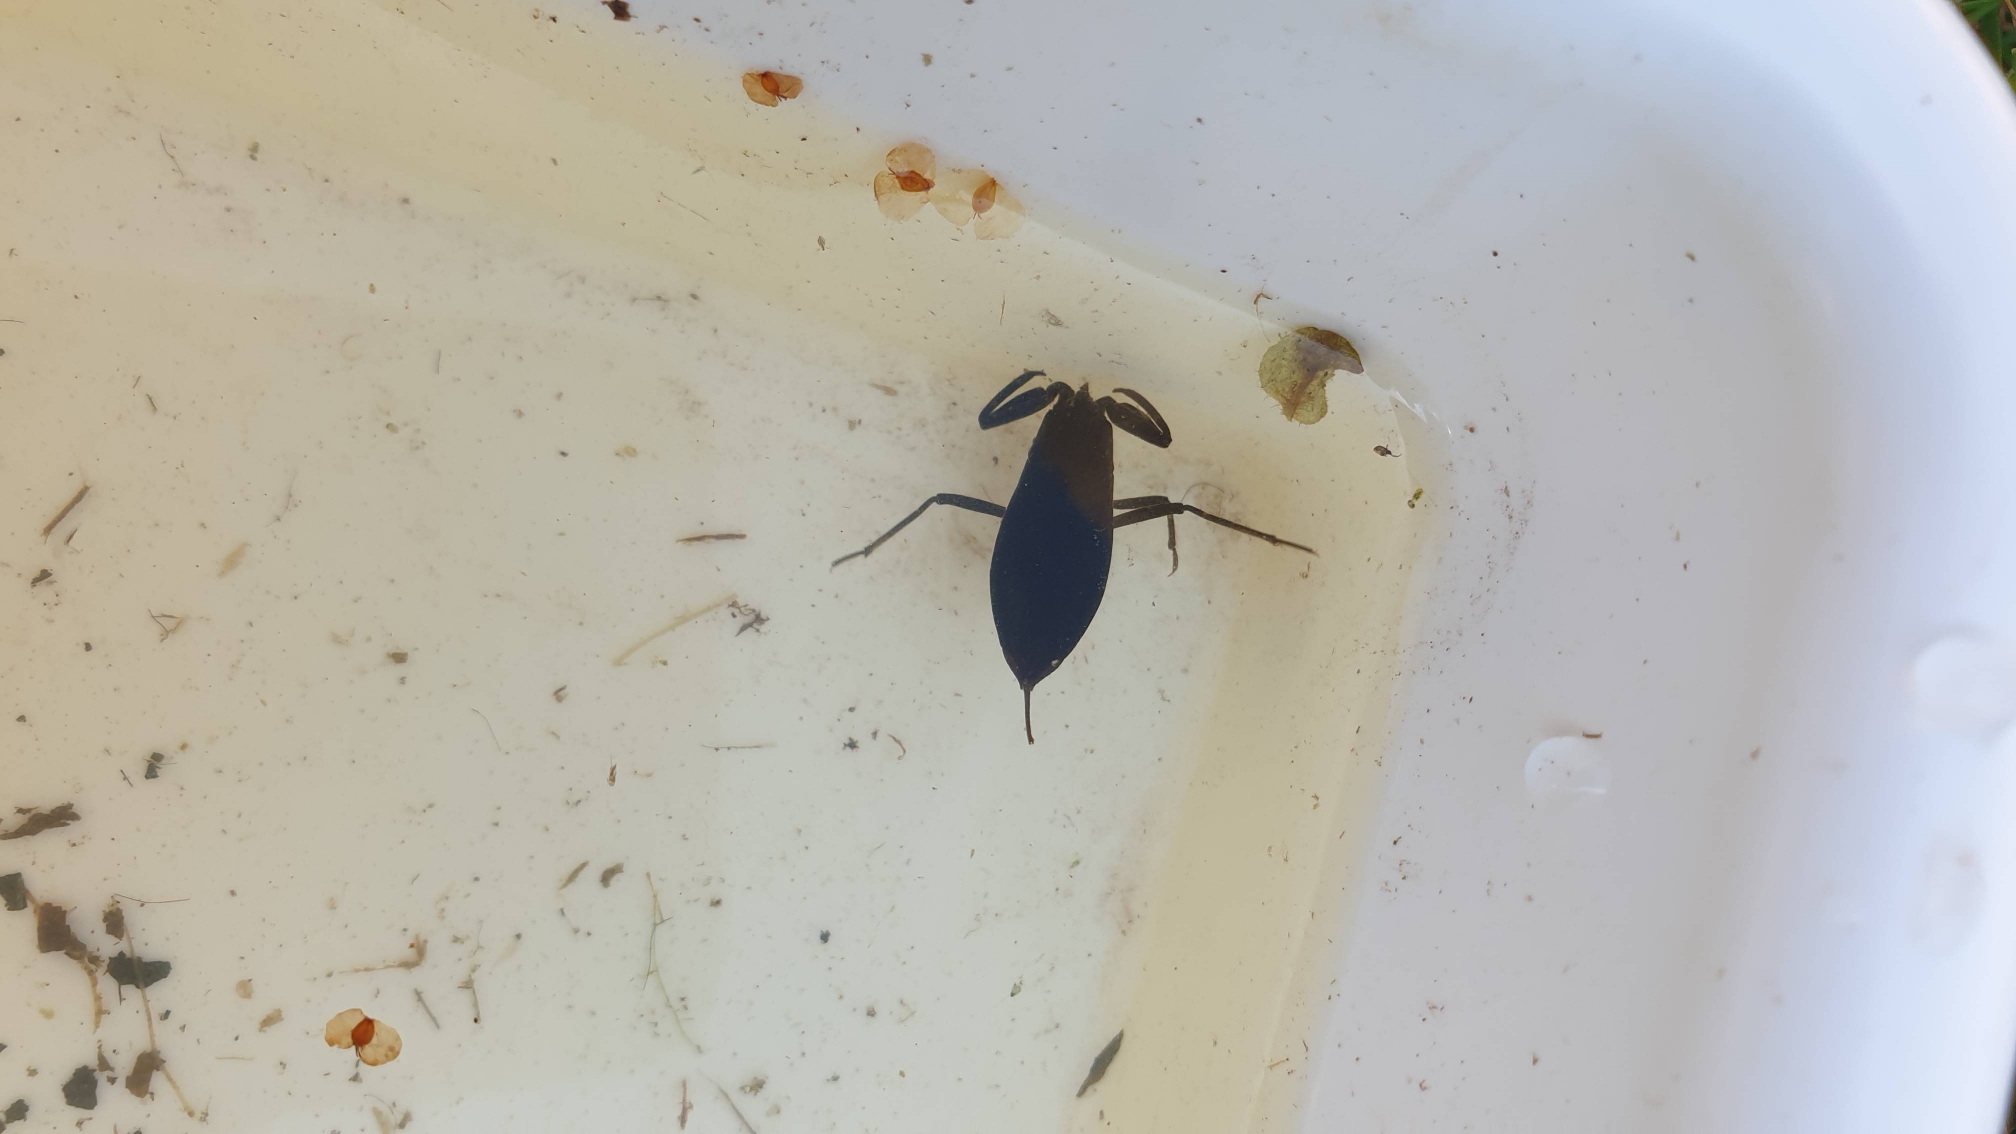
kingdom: Animalia
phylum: Arthropoda
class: Insecta
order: Hemiptera
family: Nepidae
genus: Nepa
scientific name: Nepa cinerea
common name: Skorpiontæge
